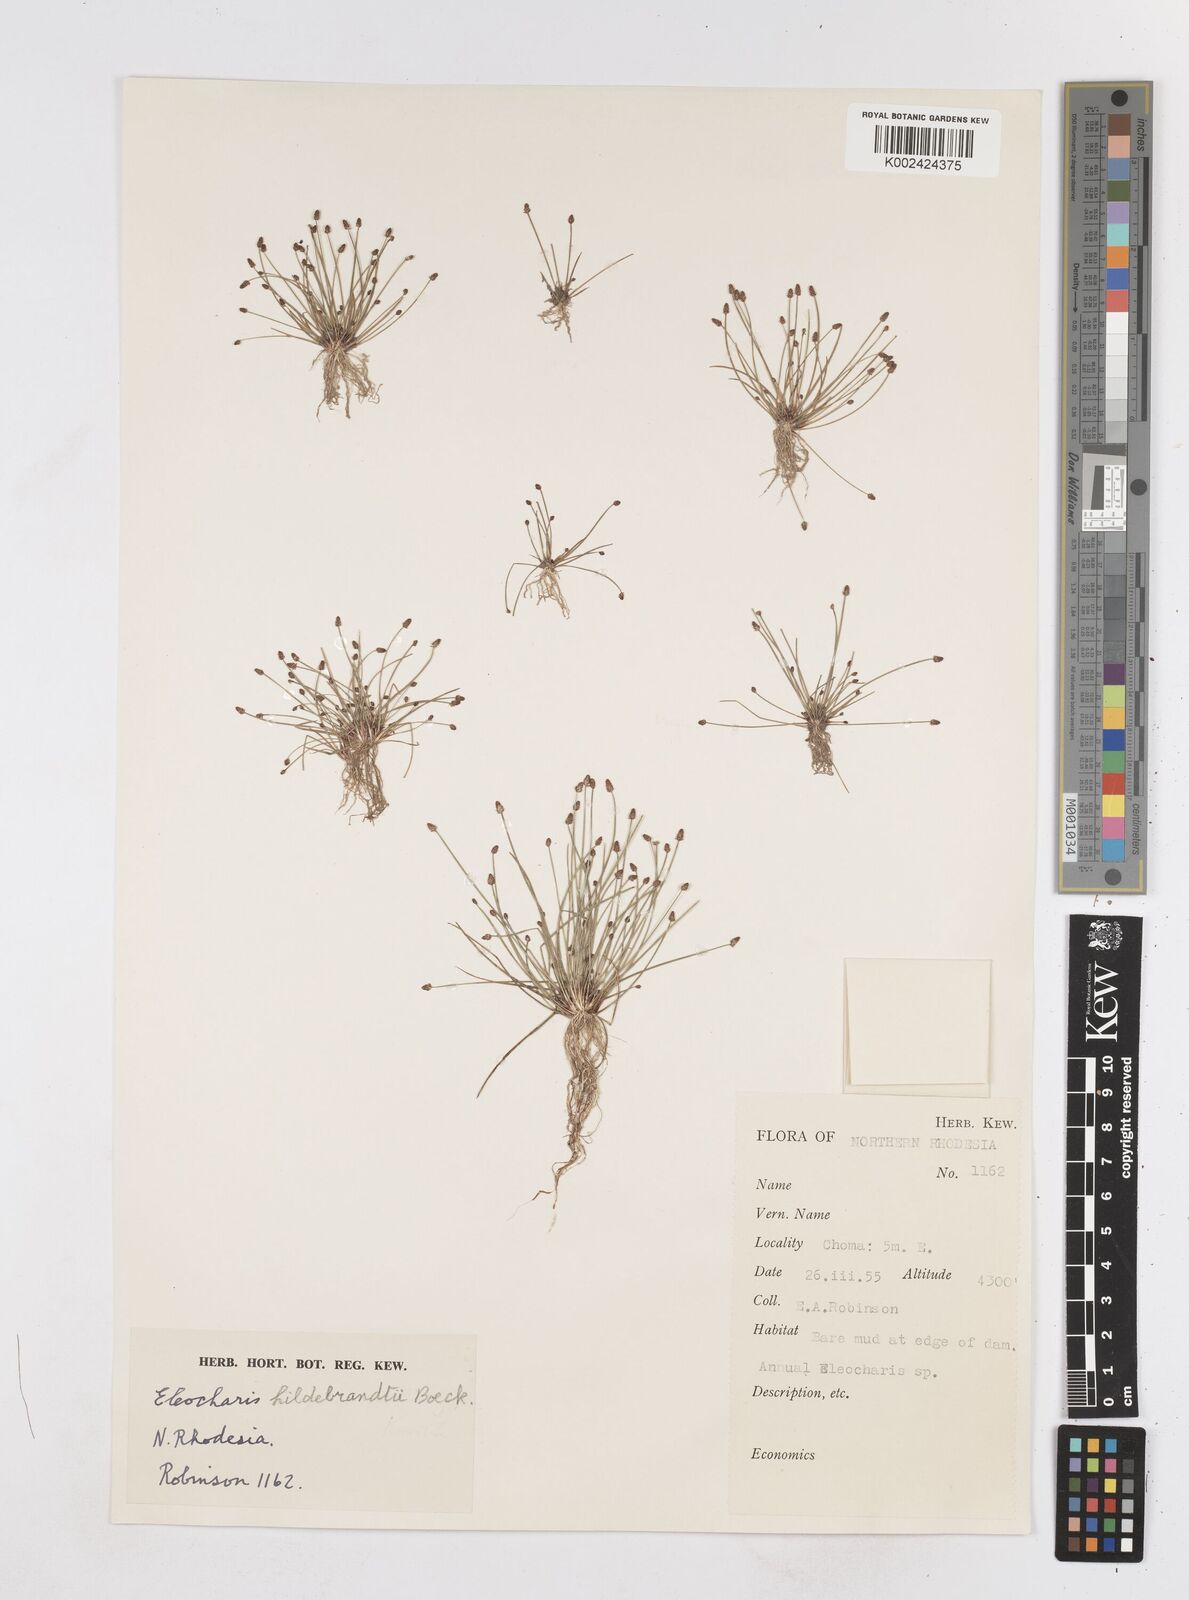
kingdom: Plantae
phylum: Tracheophyta
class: Liliopsida
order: Poales
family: Cyperaceae
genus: Eleocharis
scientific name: Eleocharis nigrescens
